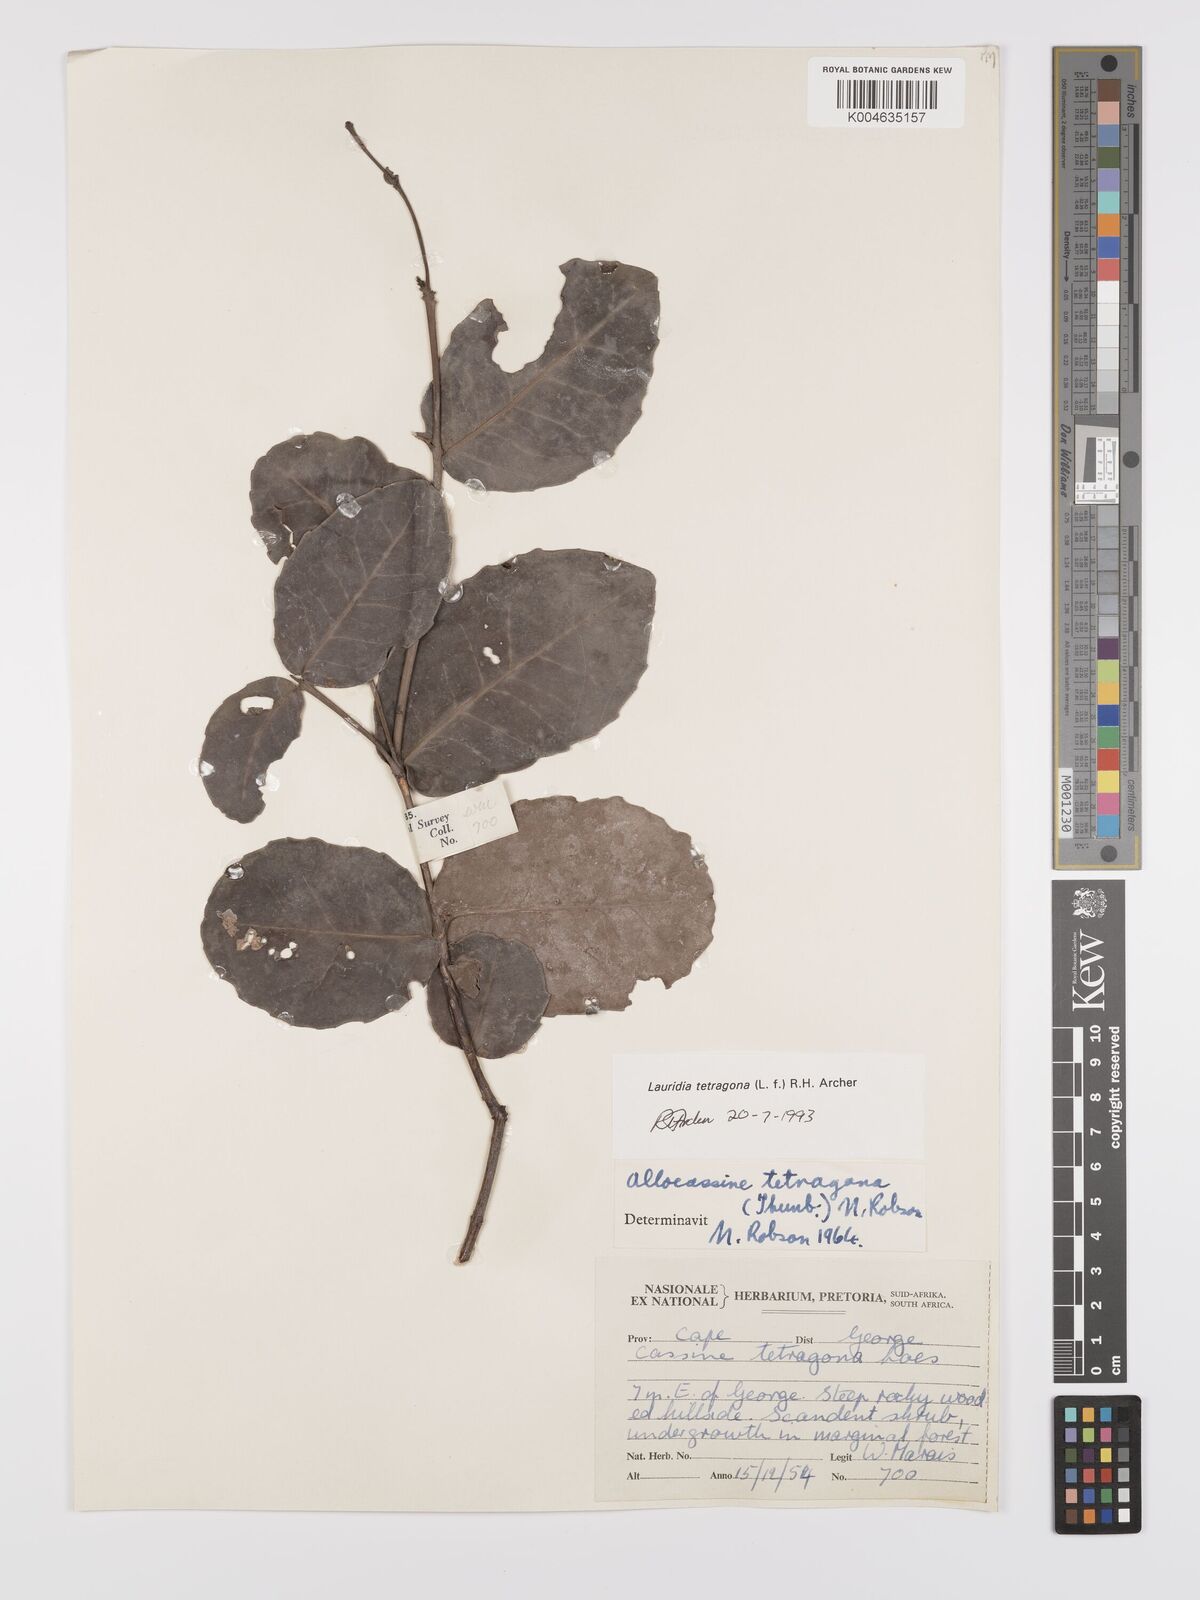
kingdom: Plantae
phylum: Tracheophyta
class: Magnoliopsida
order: Celastrales
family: Celastraceae
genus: Lauridia
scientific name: Lauridia tetragona
